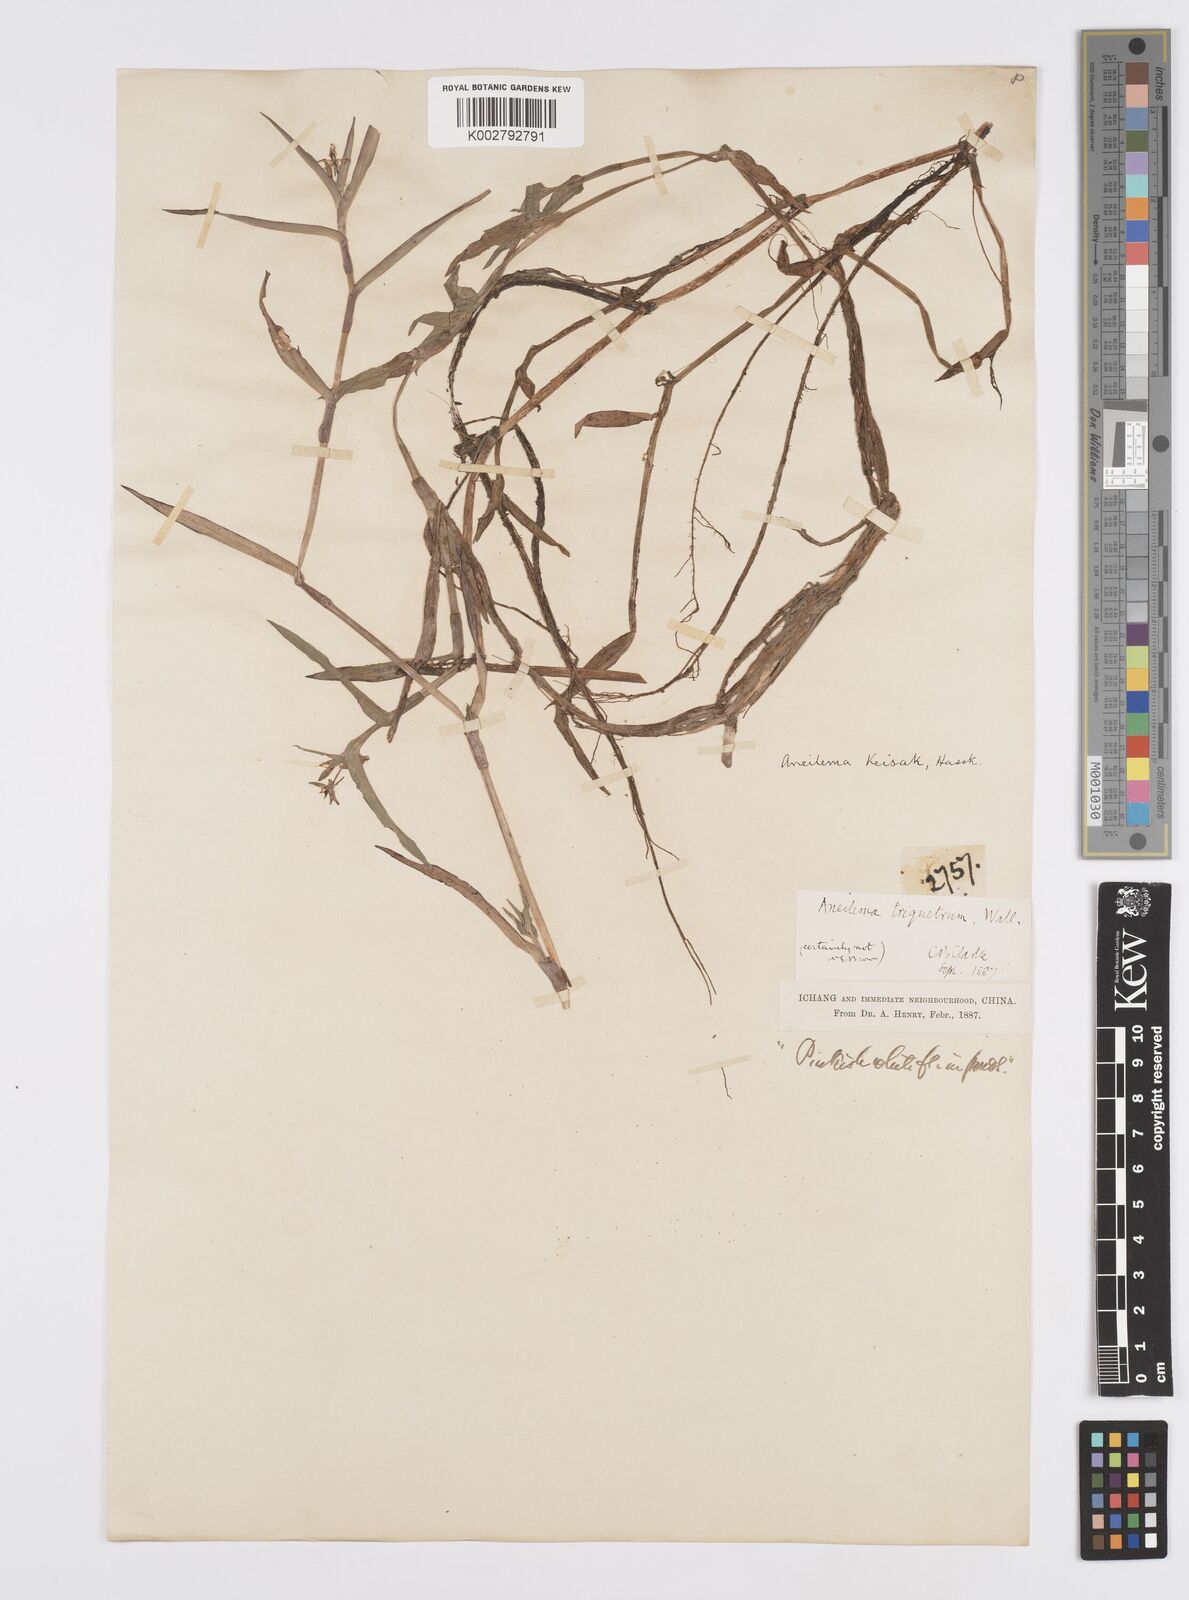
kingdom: Plantae
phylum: Tracheophyta
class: Liliopsida
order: Commelinales
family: Commelinaceae
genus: Murdannia
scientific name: Murdannia keisak
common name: Wartremoving herb
